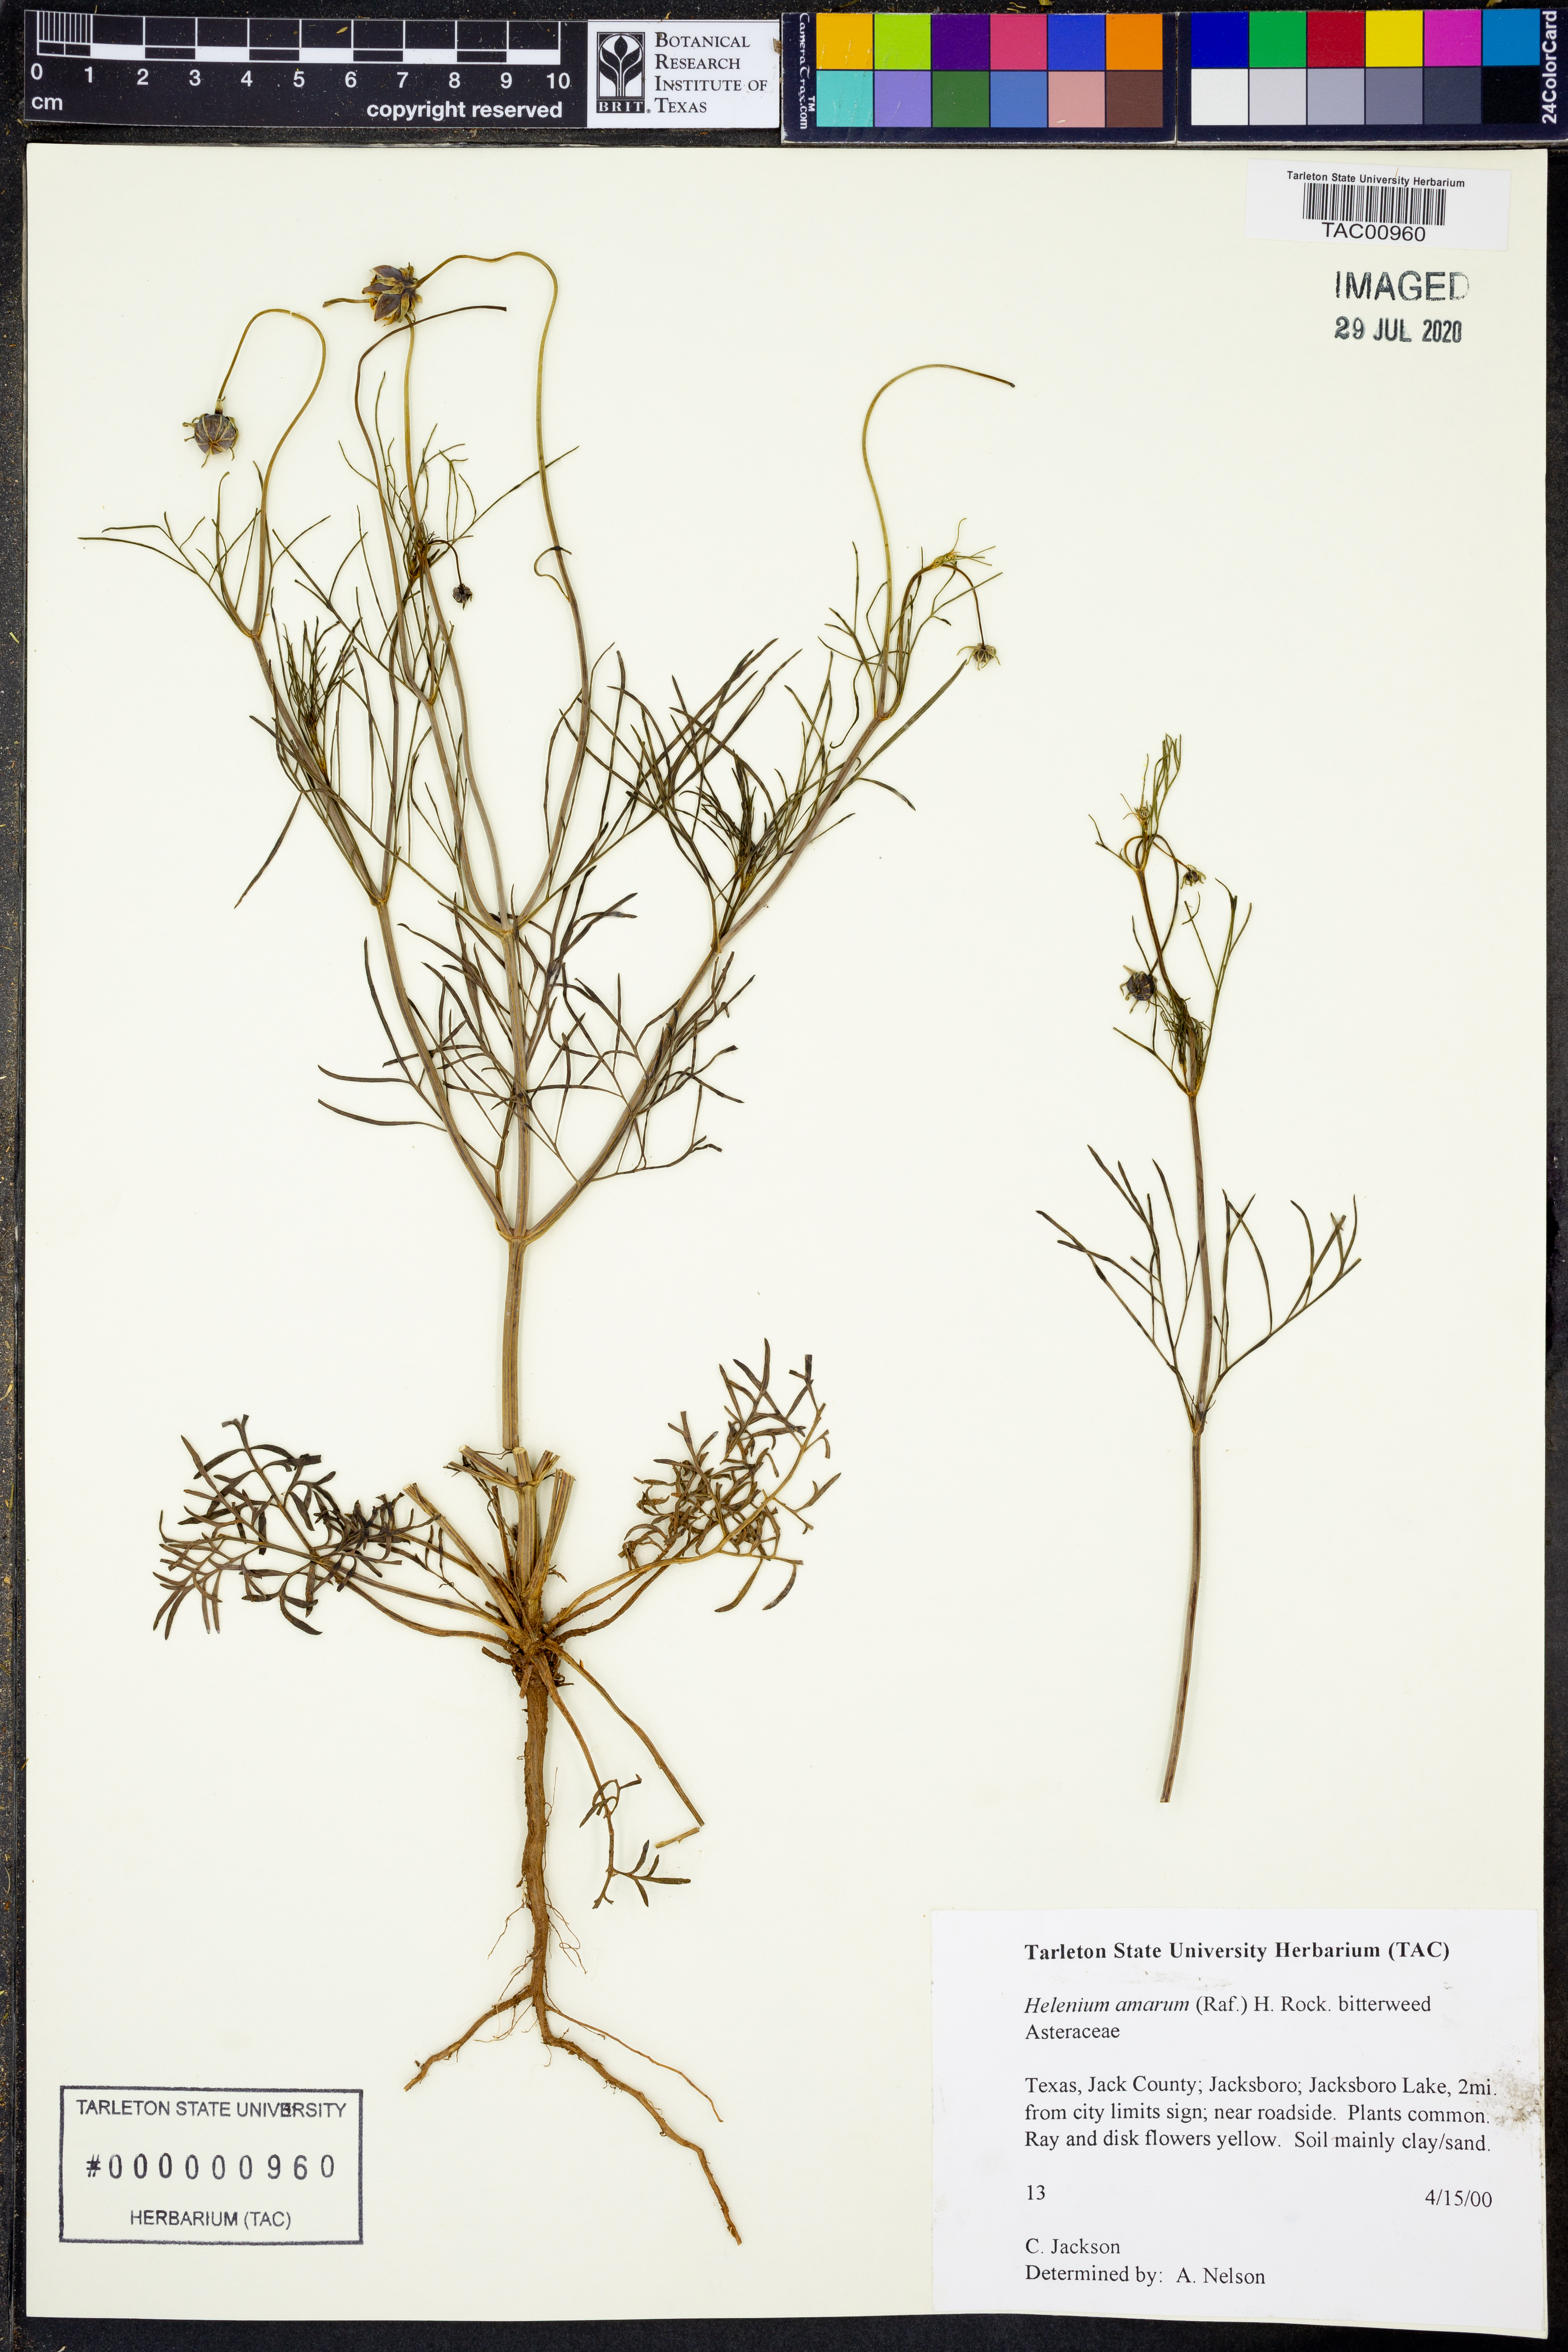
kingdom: Plantae
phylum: Tracheophyta
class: Magnoliopsida
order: Asterales
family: Asteraceae
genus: Helenium
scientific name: Helenium amarum
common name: Bitter sneezeweed
